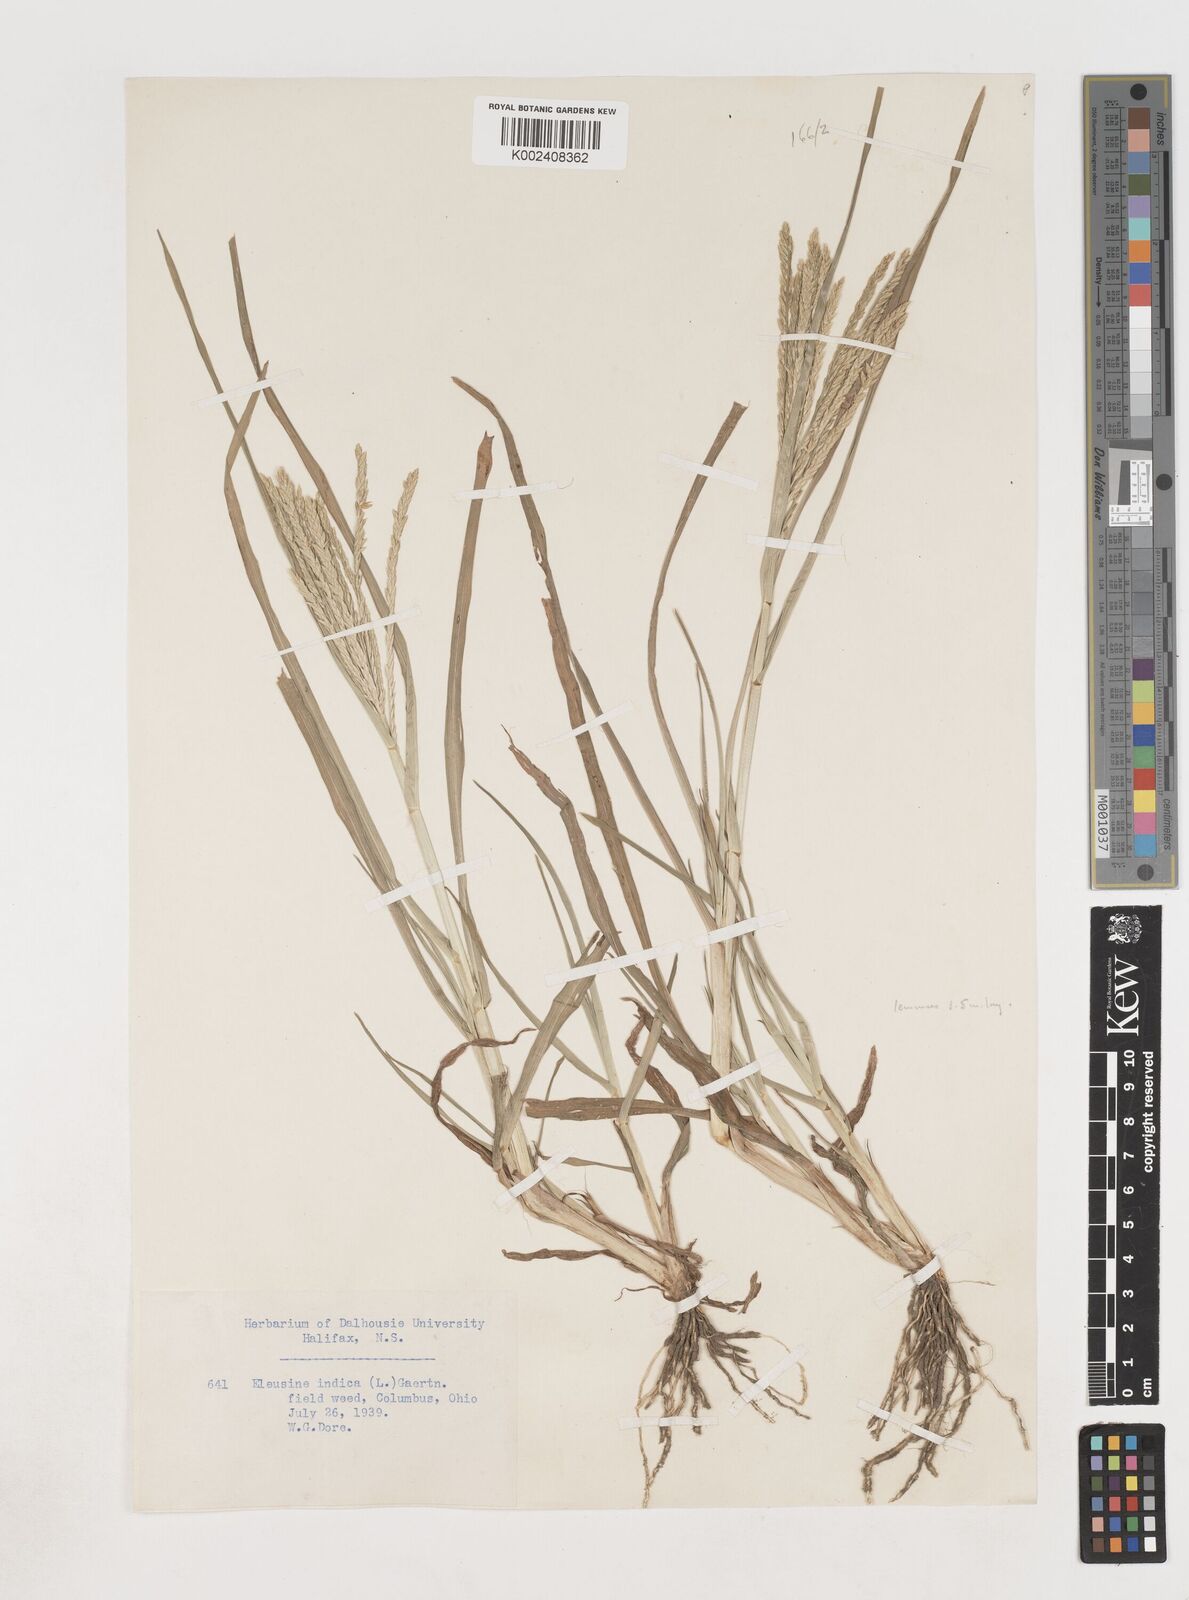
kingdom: Plantae
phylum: Tracheophyta
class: Liliopsida
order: Poales
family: Poaceae
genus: Eleusine
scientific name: Eleusine indica
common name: Yard-grass
